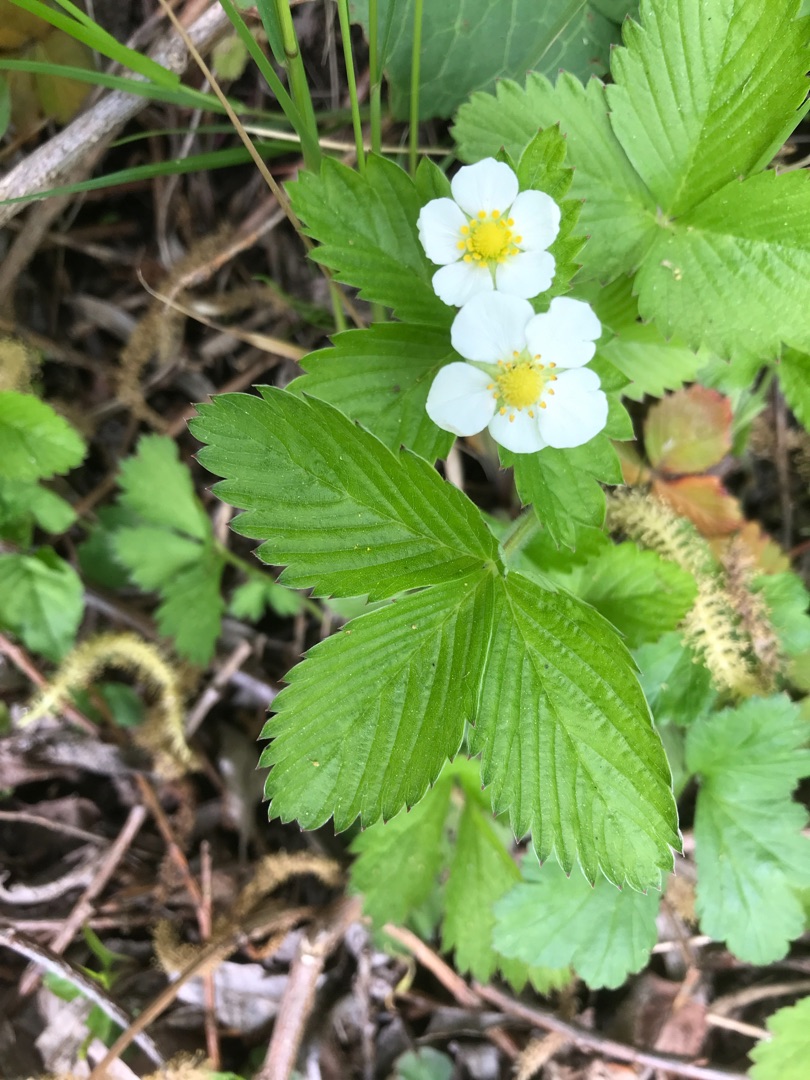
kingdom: Plantae
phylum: Tracheophyta
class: Magnoliopsida
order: Rosales
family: Rosaceae
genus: Fragaria
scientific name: Fragaria vesca
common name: Skov-jordbær
